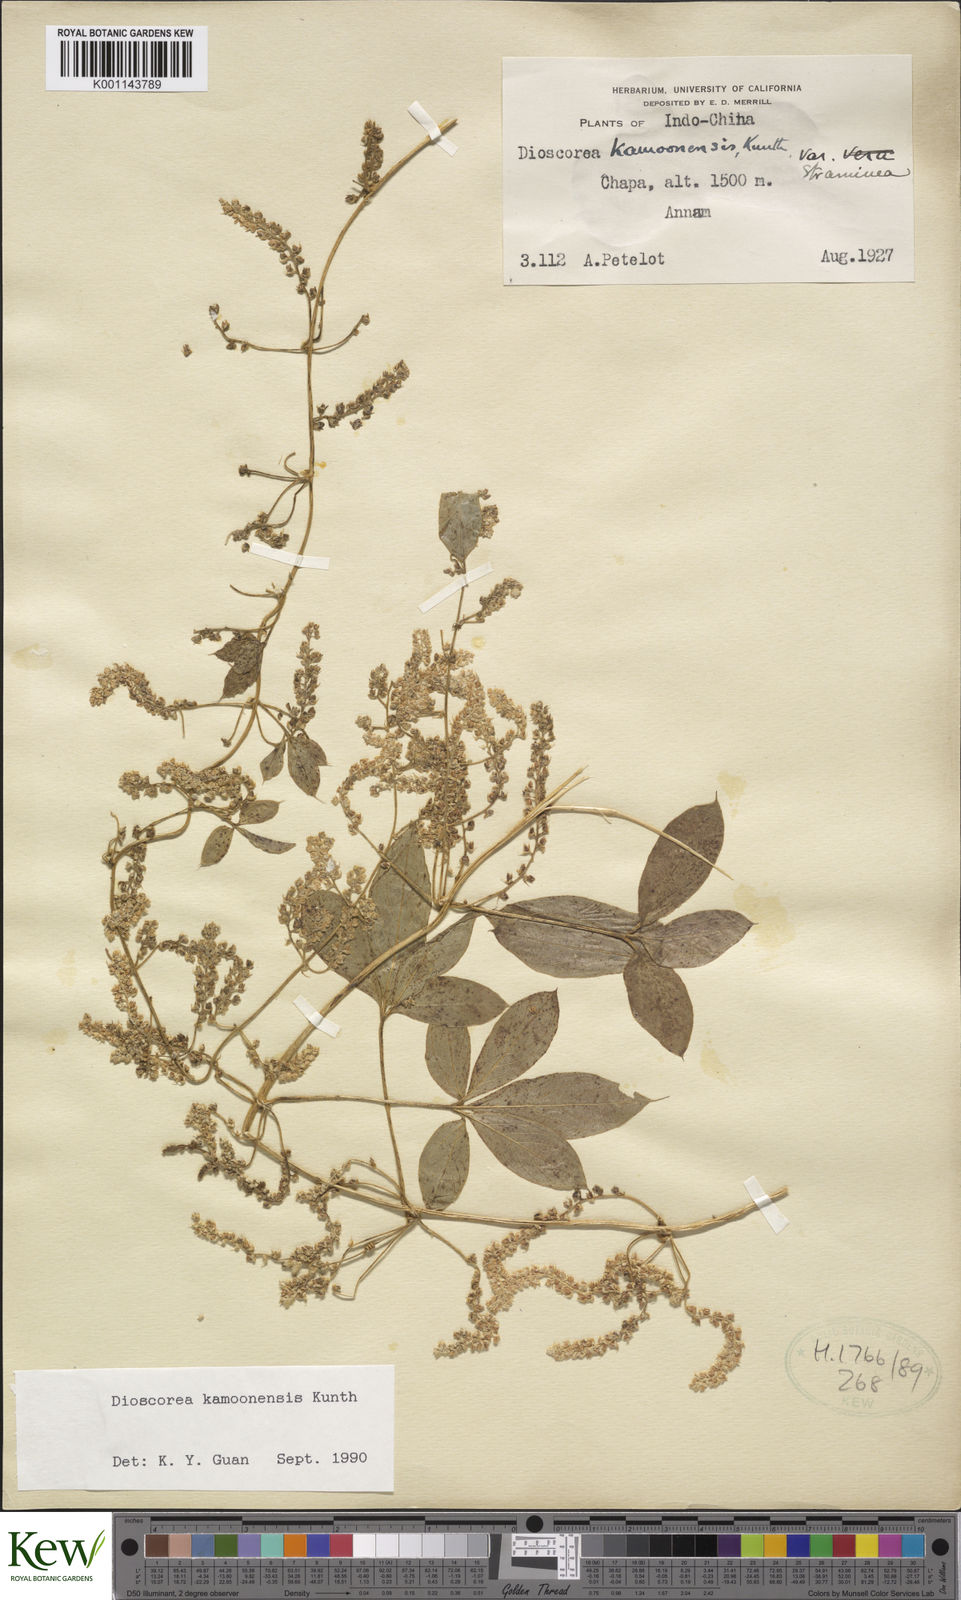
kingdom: Plantae
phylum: Tracheophyta
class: Liliopsida
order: Dioscoreales
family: Dioscoreaceae
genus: Dioscorea
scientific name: Dioscorea kamoonensis
